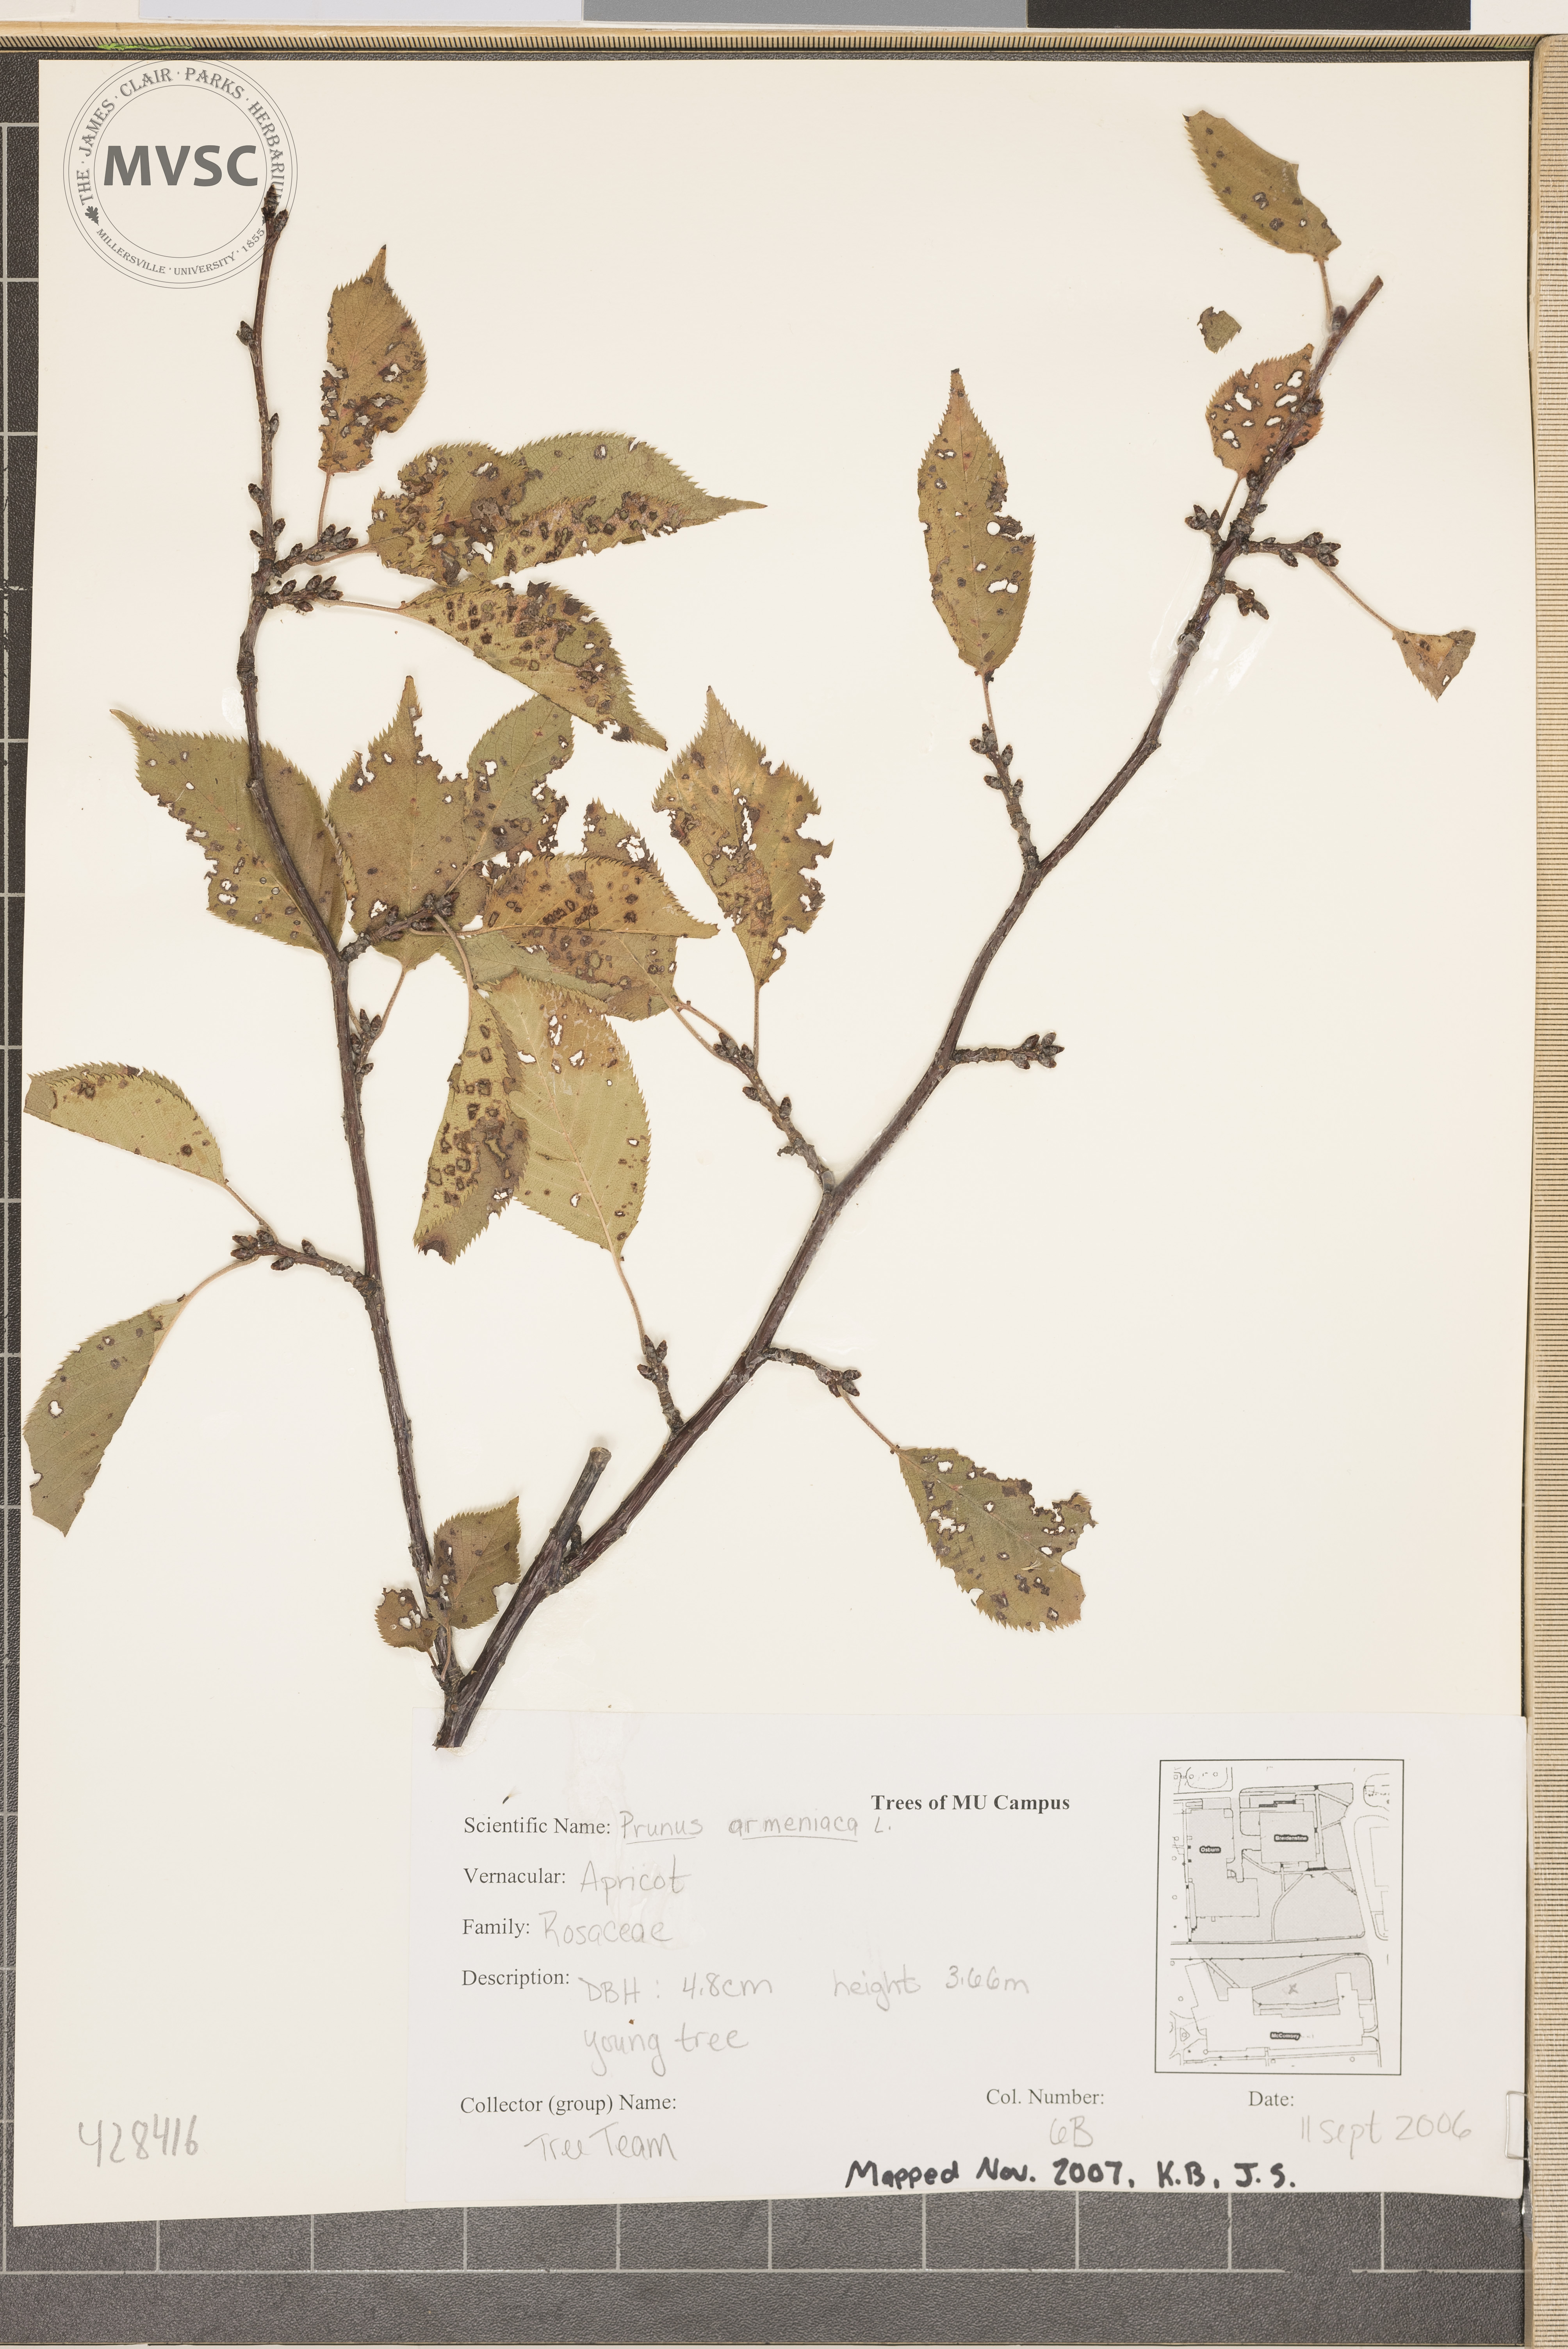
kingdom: Plantae
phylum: Tracheophyta
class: Magnoliopsida
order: Rosales
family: Rosaceae
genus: Prunus
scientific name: Prunus armeniaca
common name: Apricot
